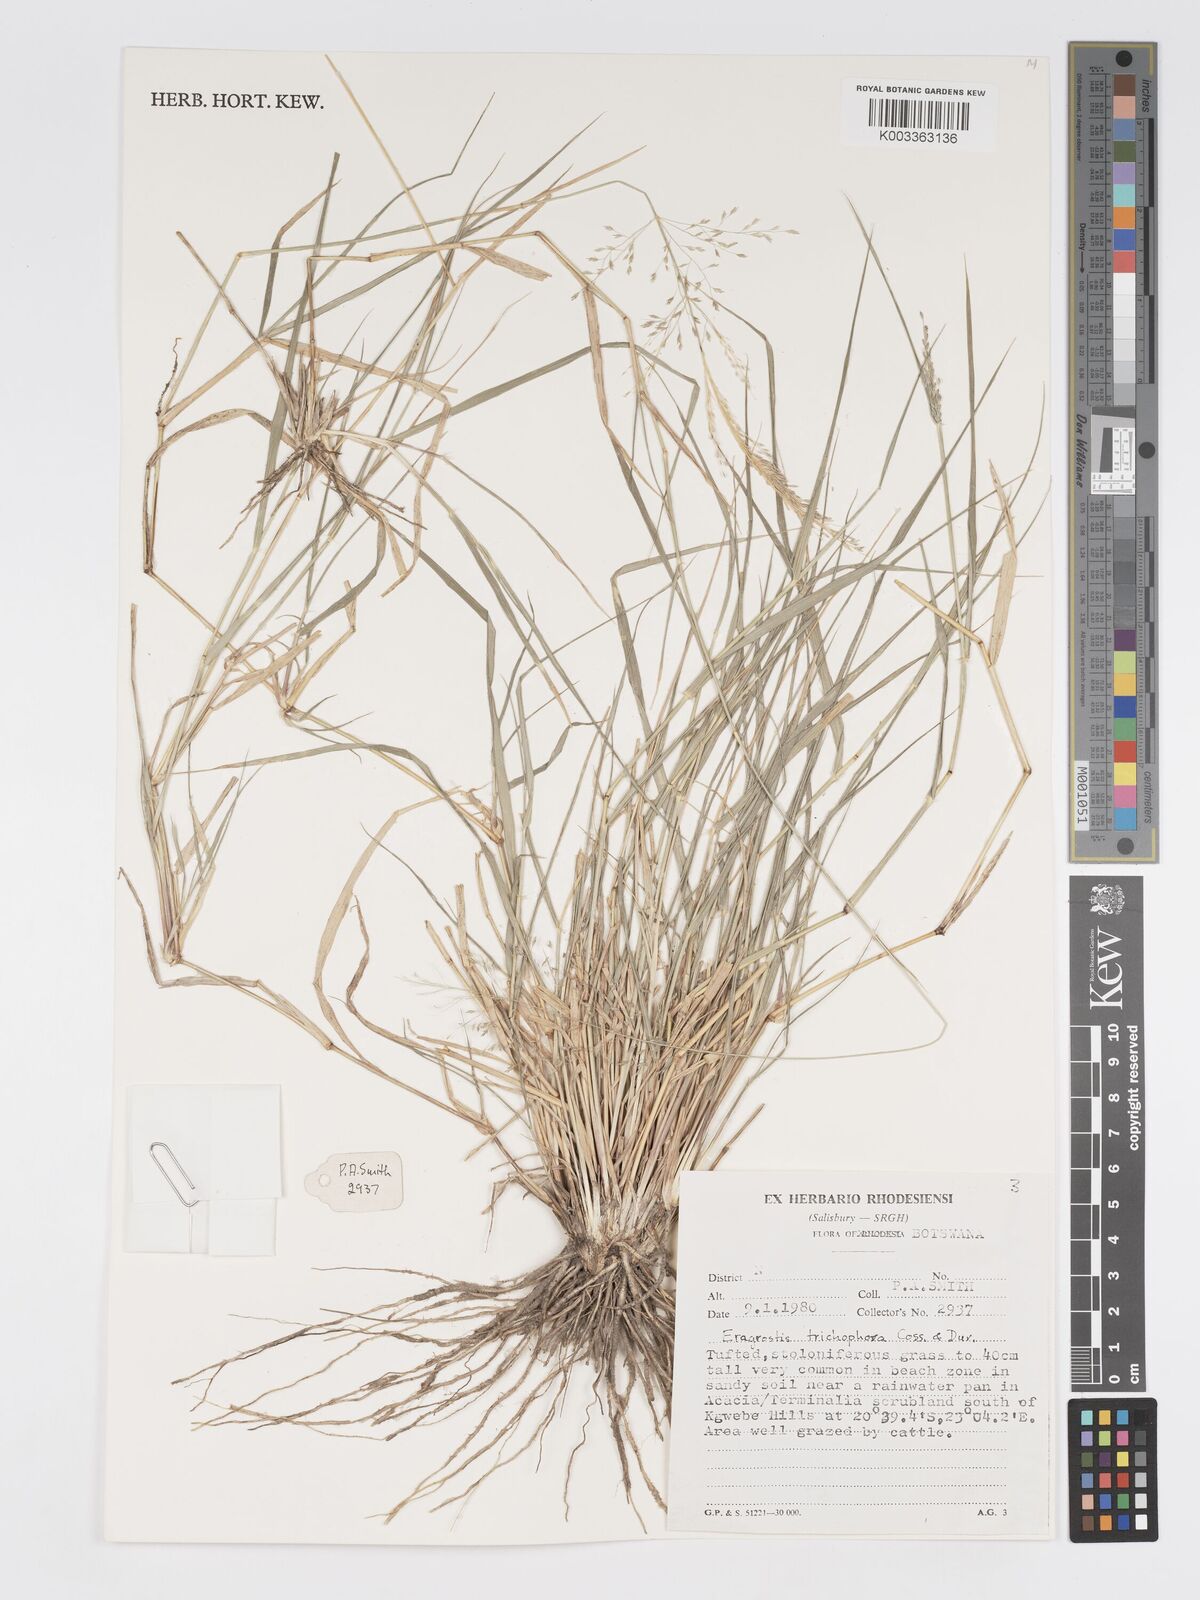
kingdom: Plantae
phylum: Tracheophyta
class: Liliopsida
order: Poales
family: Poaceae
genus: Eragrostis
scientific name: Eragrostis cylindriflora
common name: Cylinderflower lovegrass
